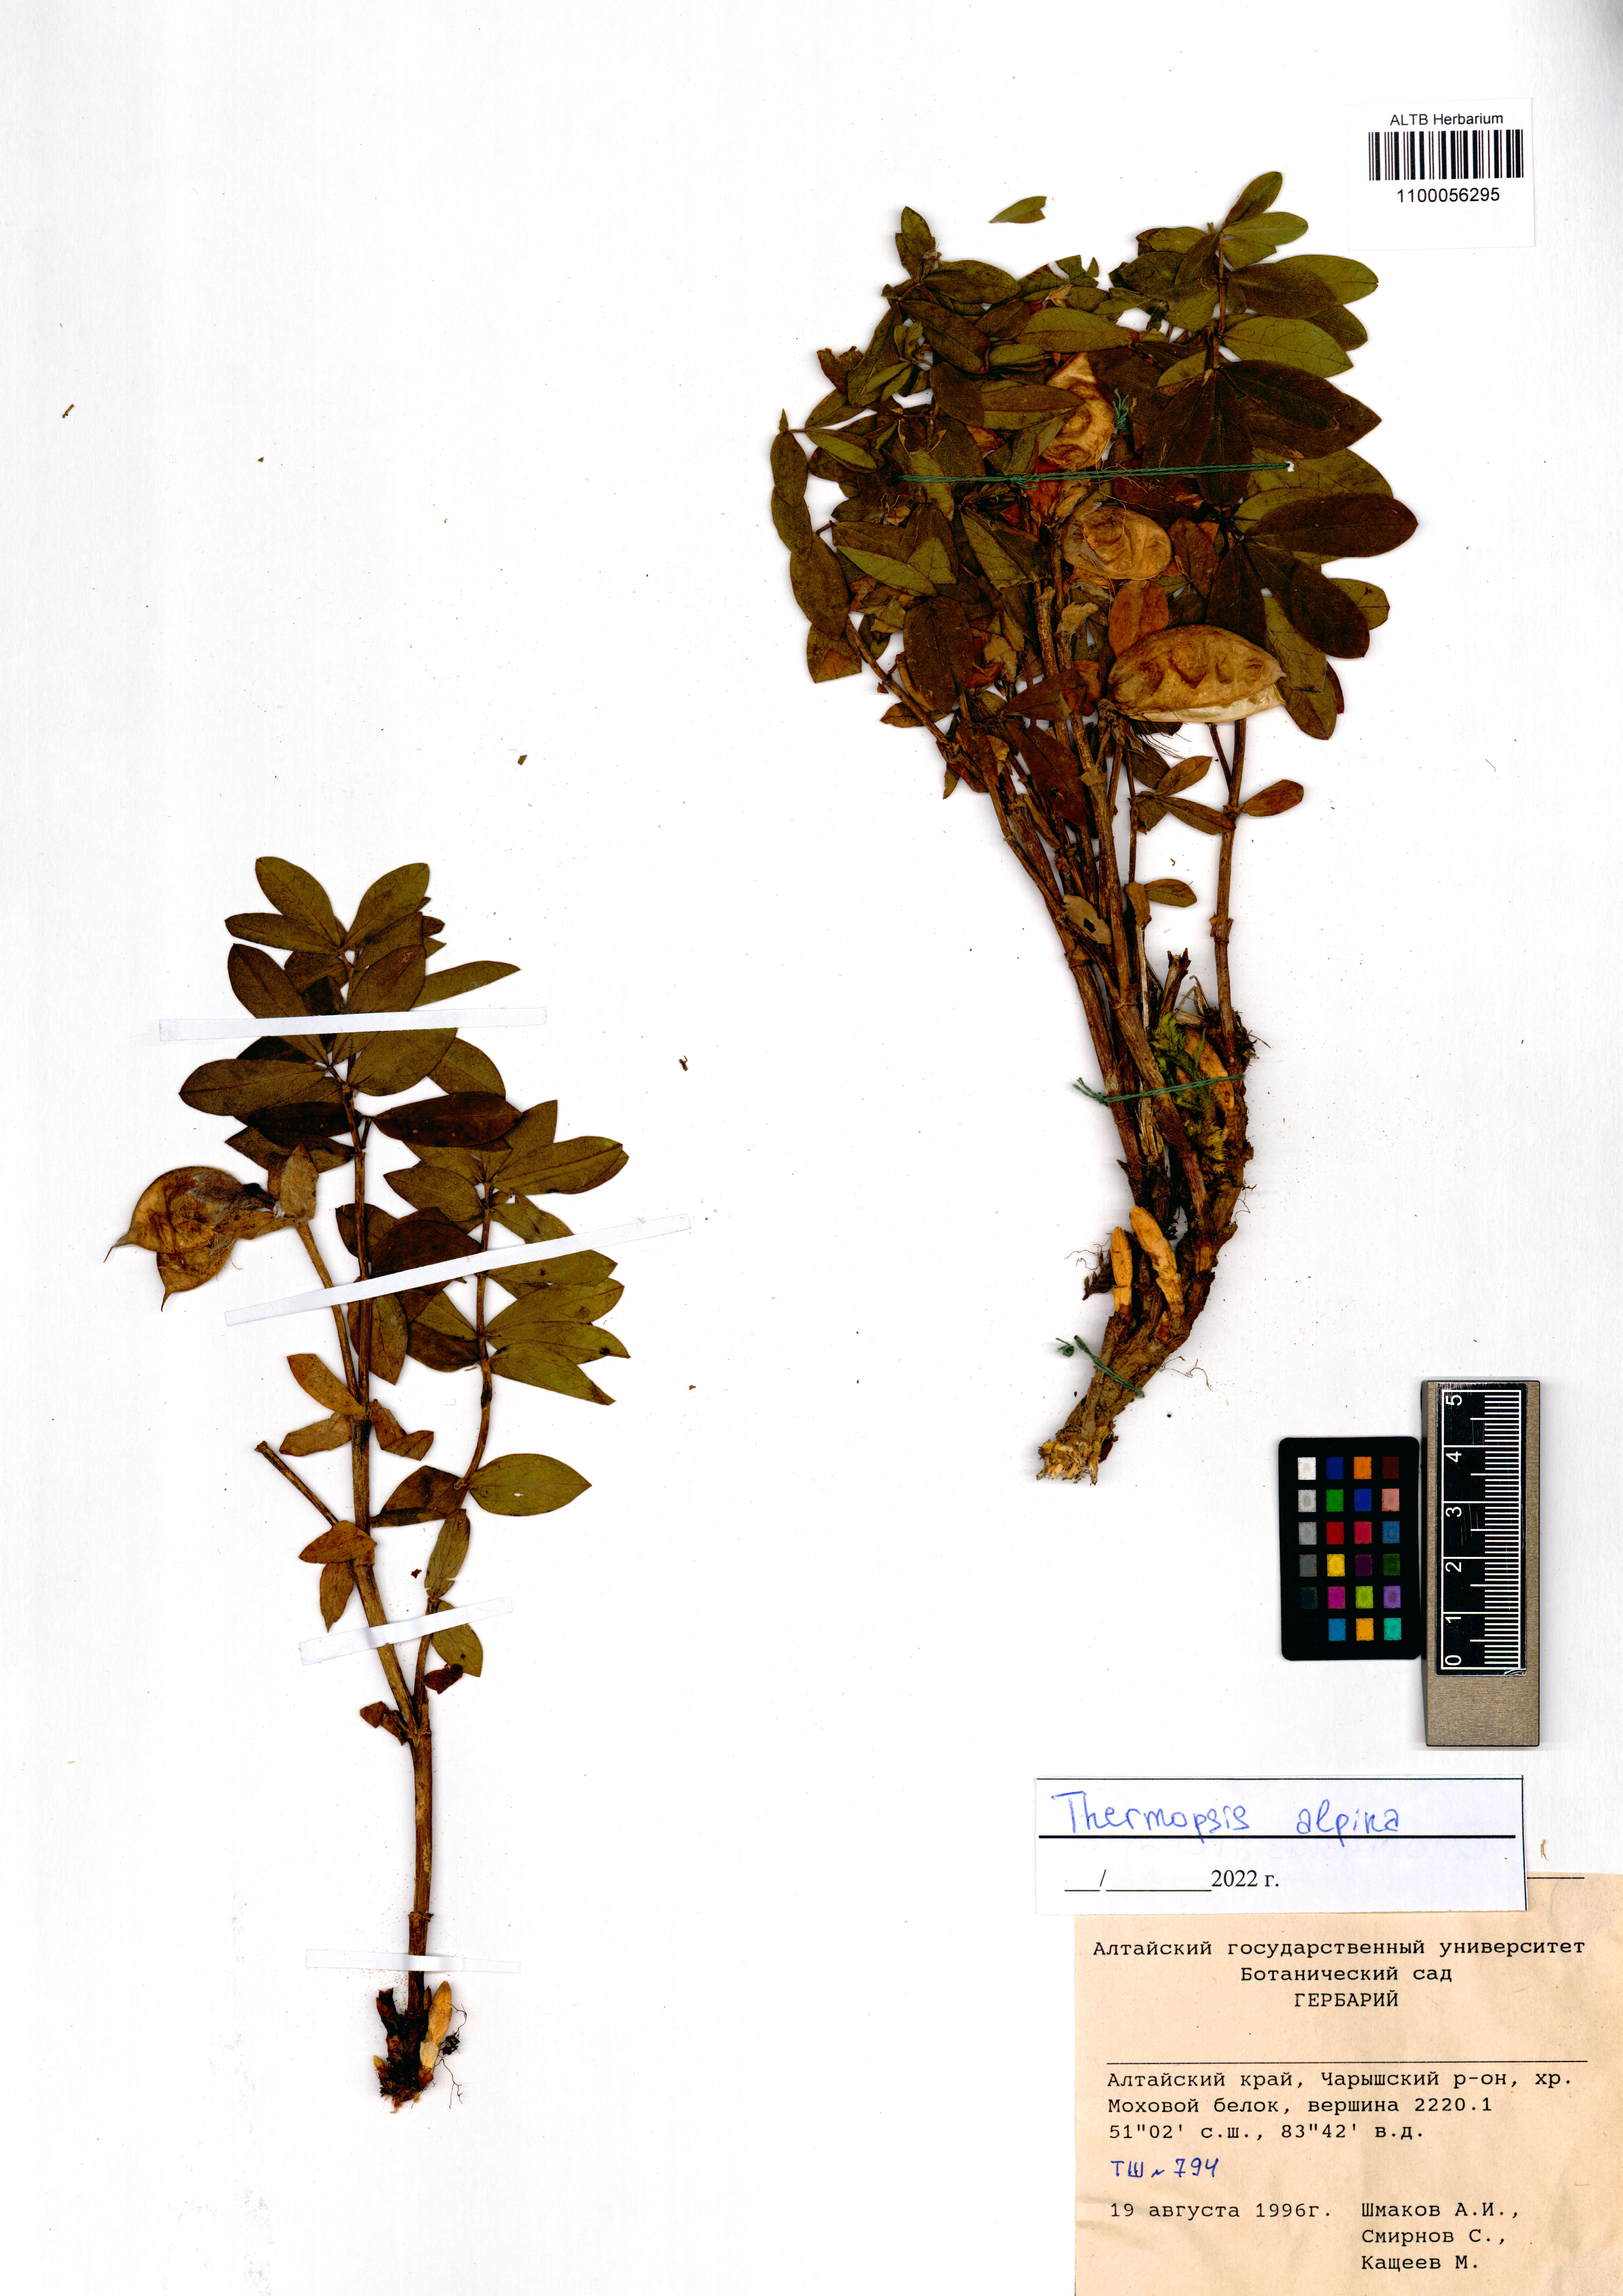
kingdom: Plantae
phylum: Tracheophyta
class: Magnoliopsida
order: Fabales
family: Fabaceae
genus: Thermopsis
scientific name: Thermopsis alpina
